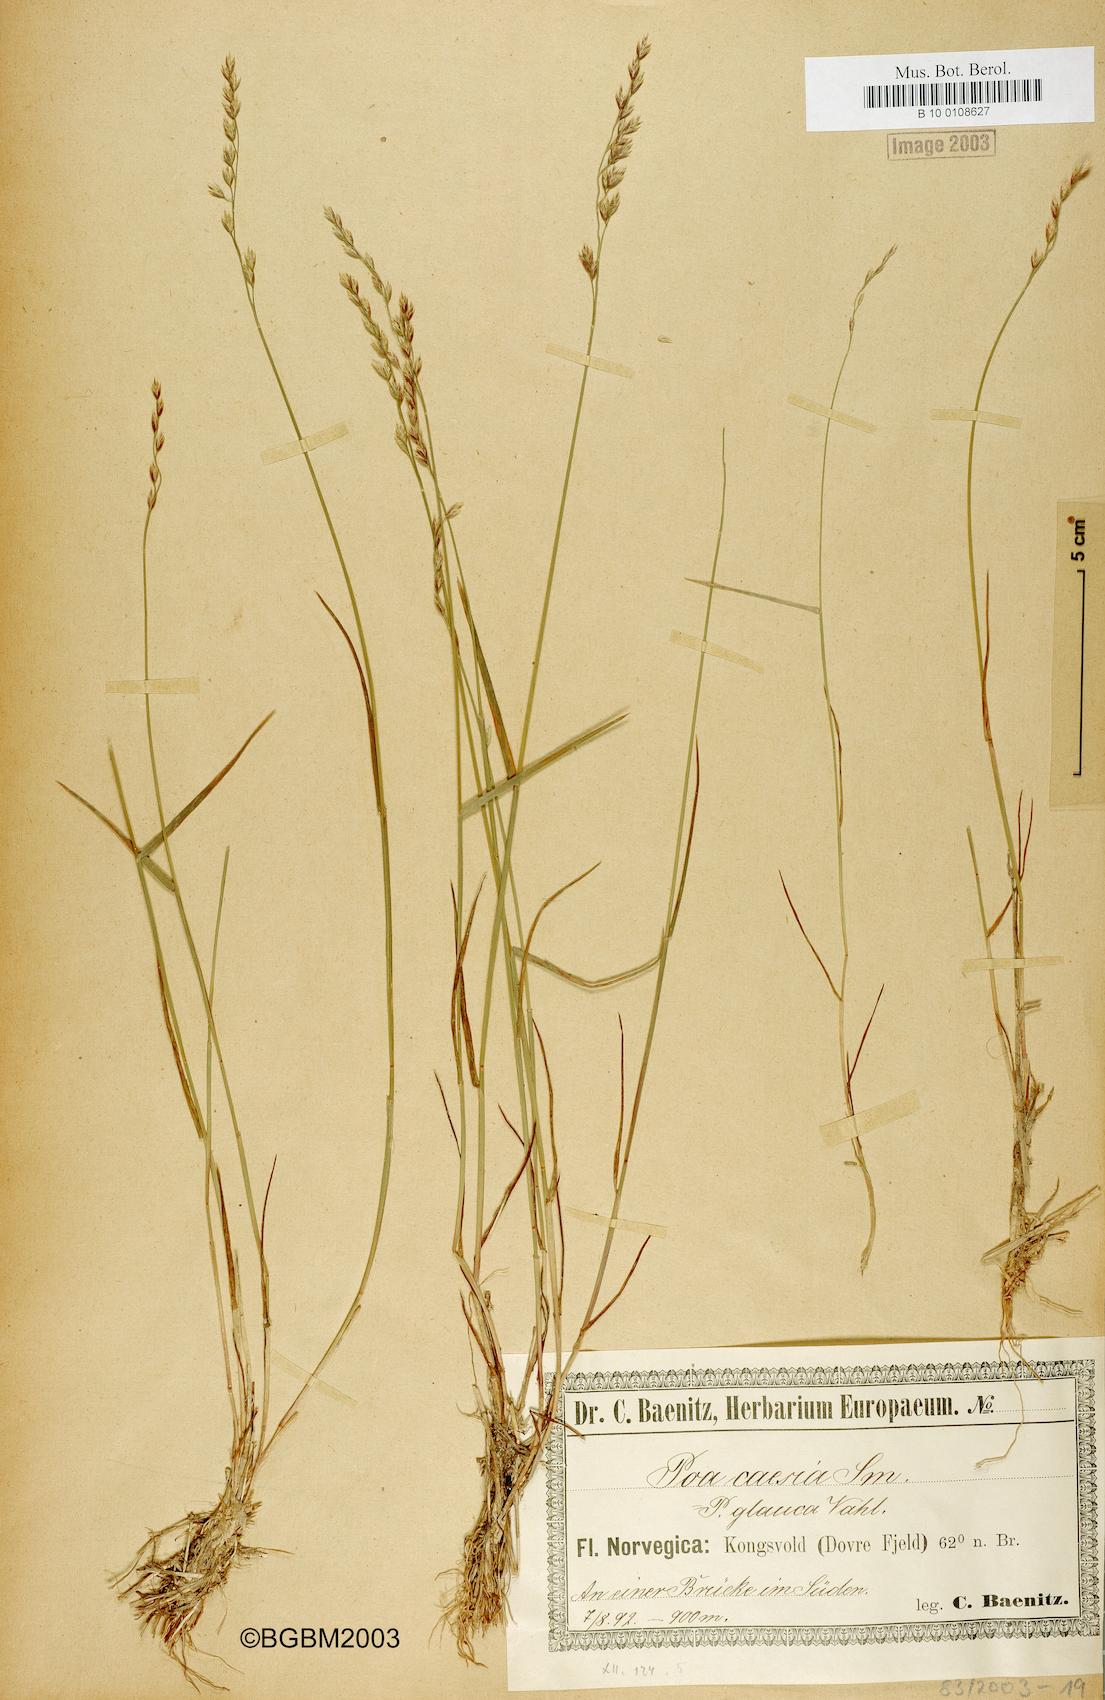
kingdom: Plantae
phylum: Tracheophyta
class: Liliopsida
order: Poales
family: Poaceae
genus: Poa
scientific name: Poa glauca
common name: Glaucous bluegrass
